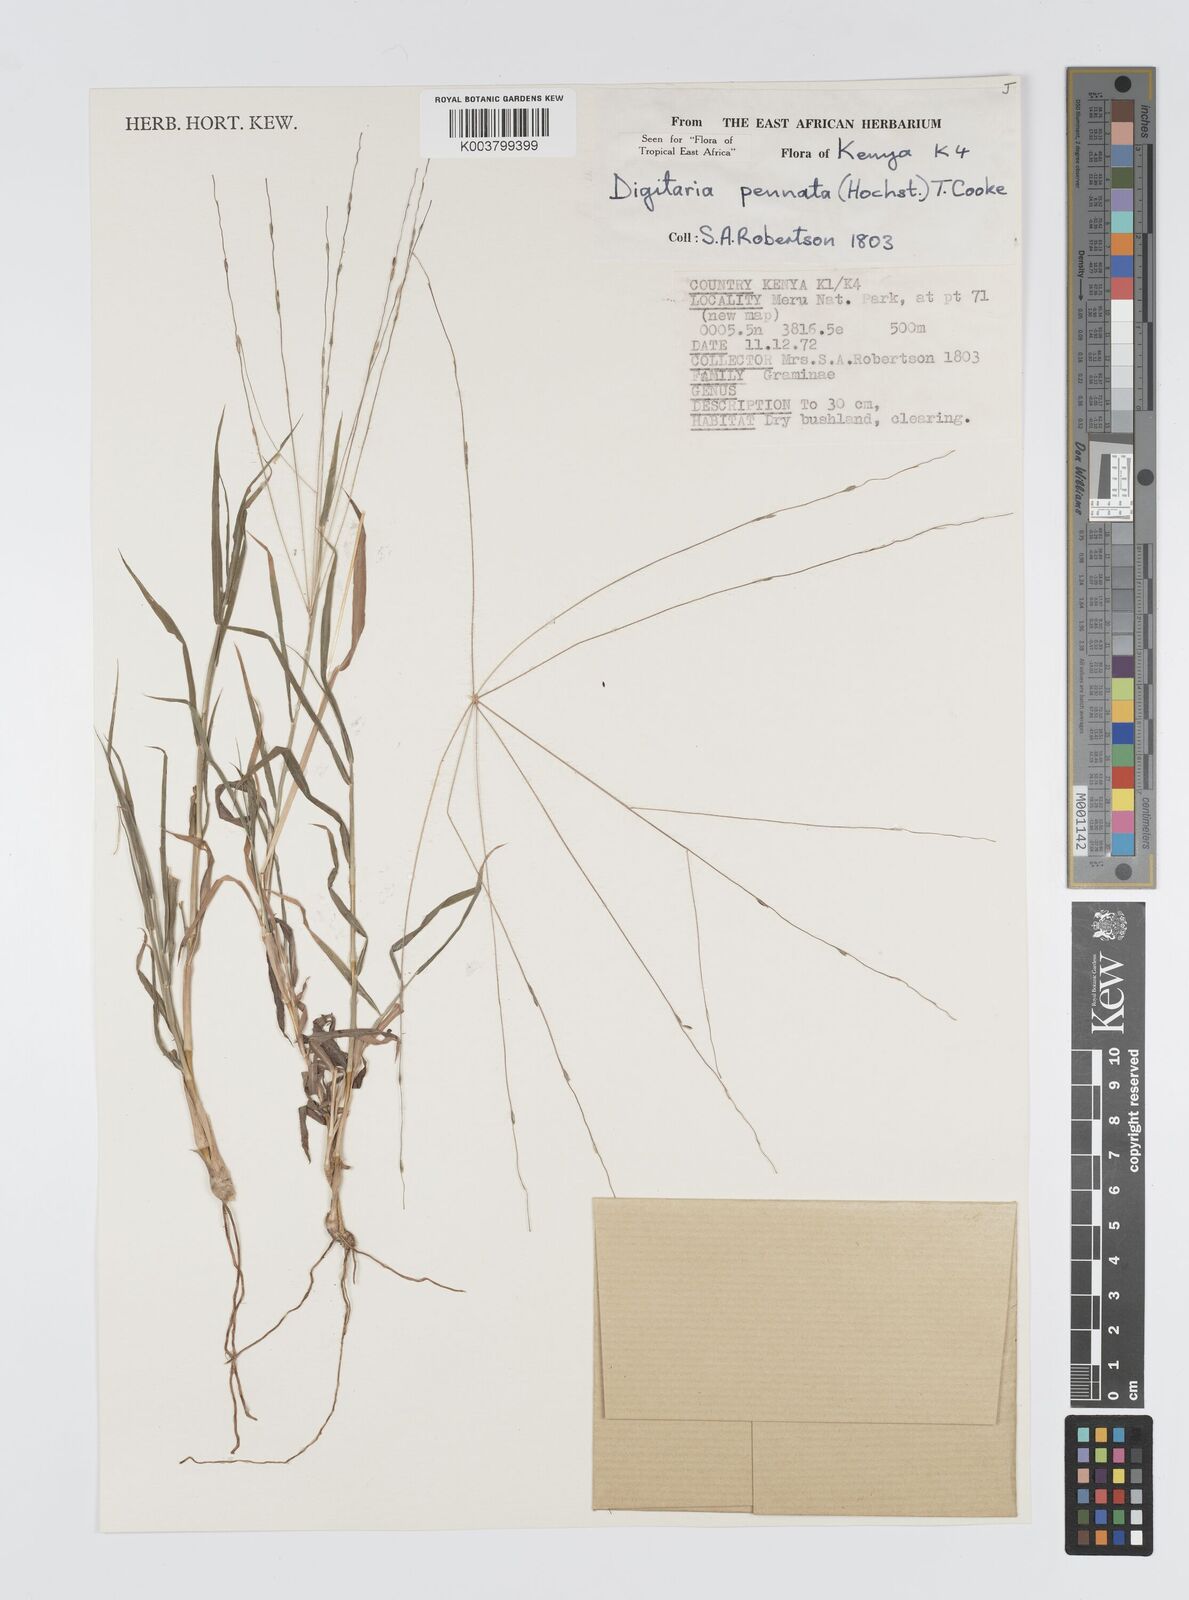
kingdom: Plantae
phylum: Tracheophyta
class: Liliopsida
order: Poales
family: Poaceae
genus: Digitaria
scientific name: Digitaria
